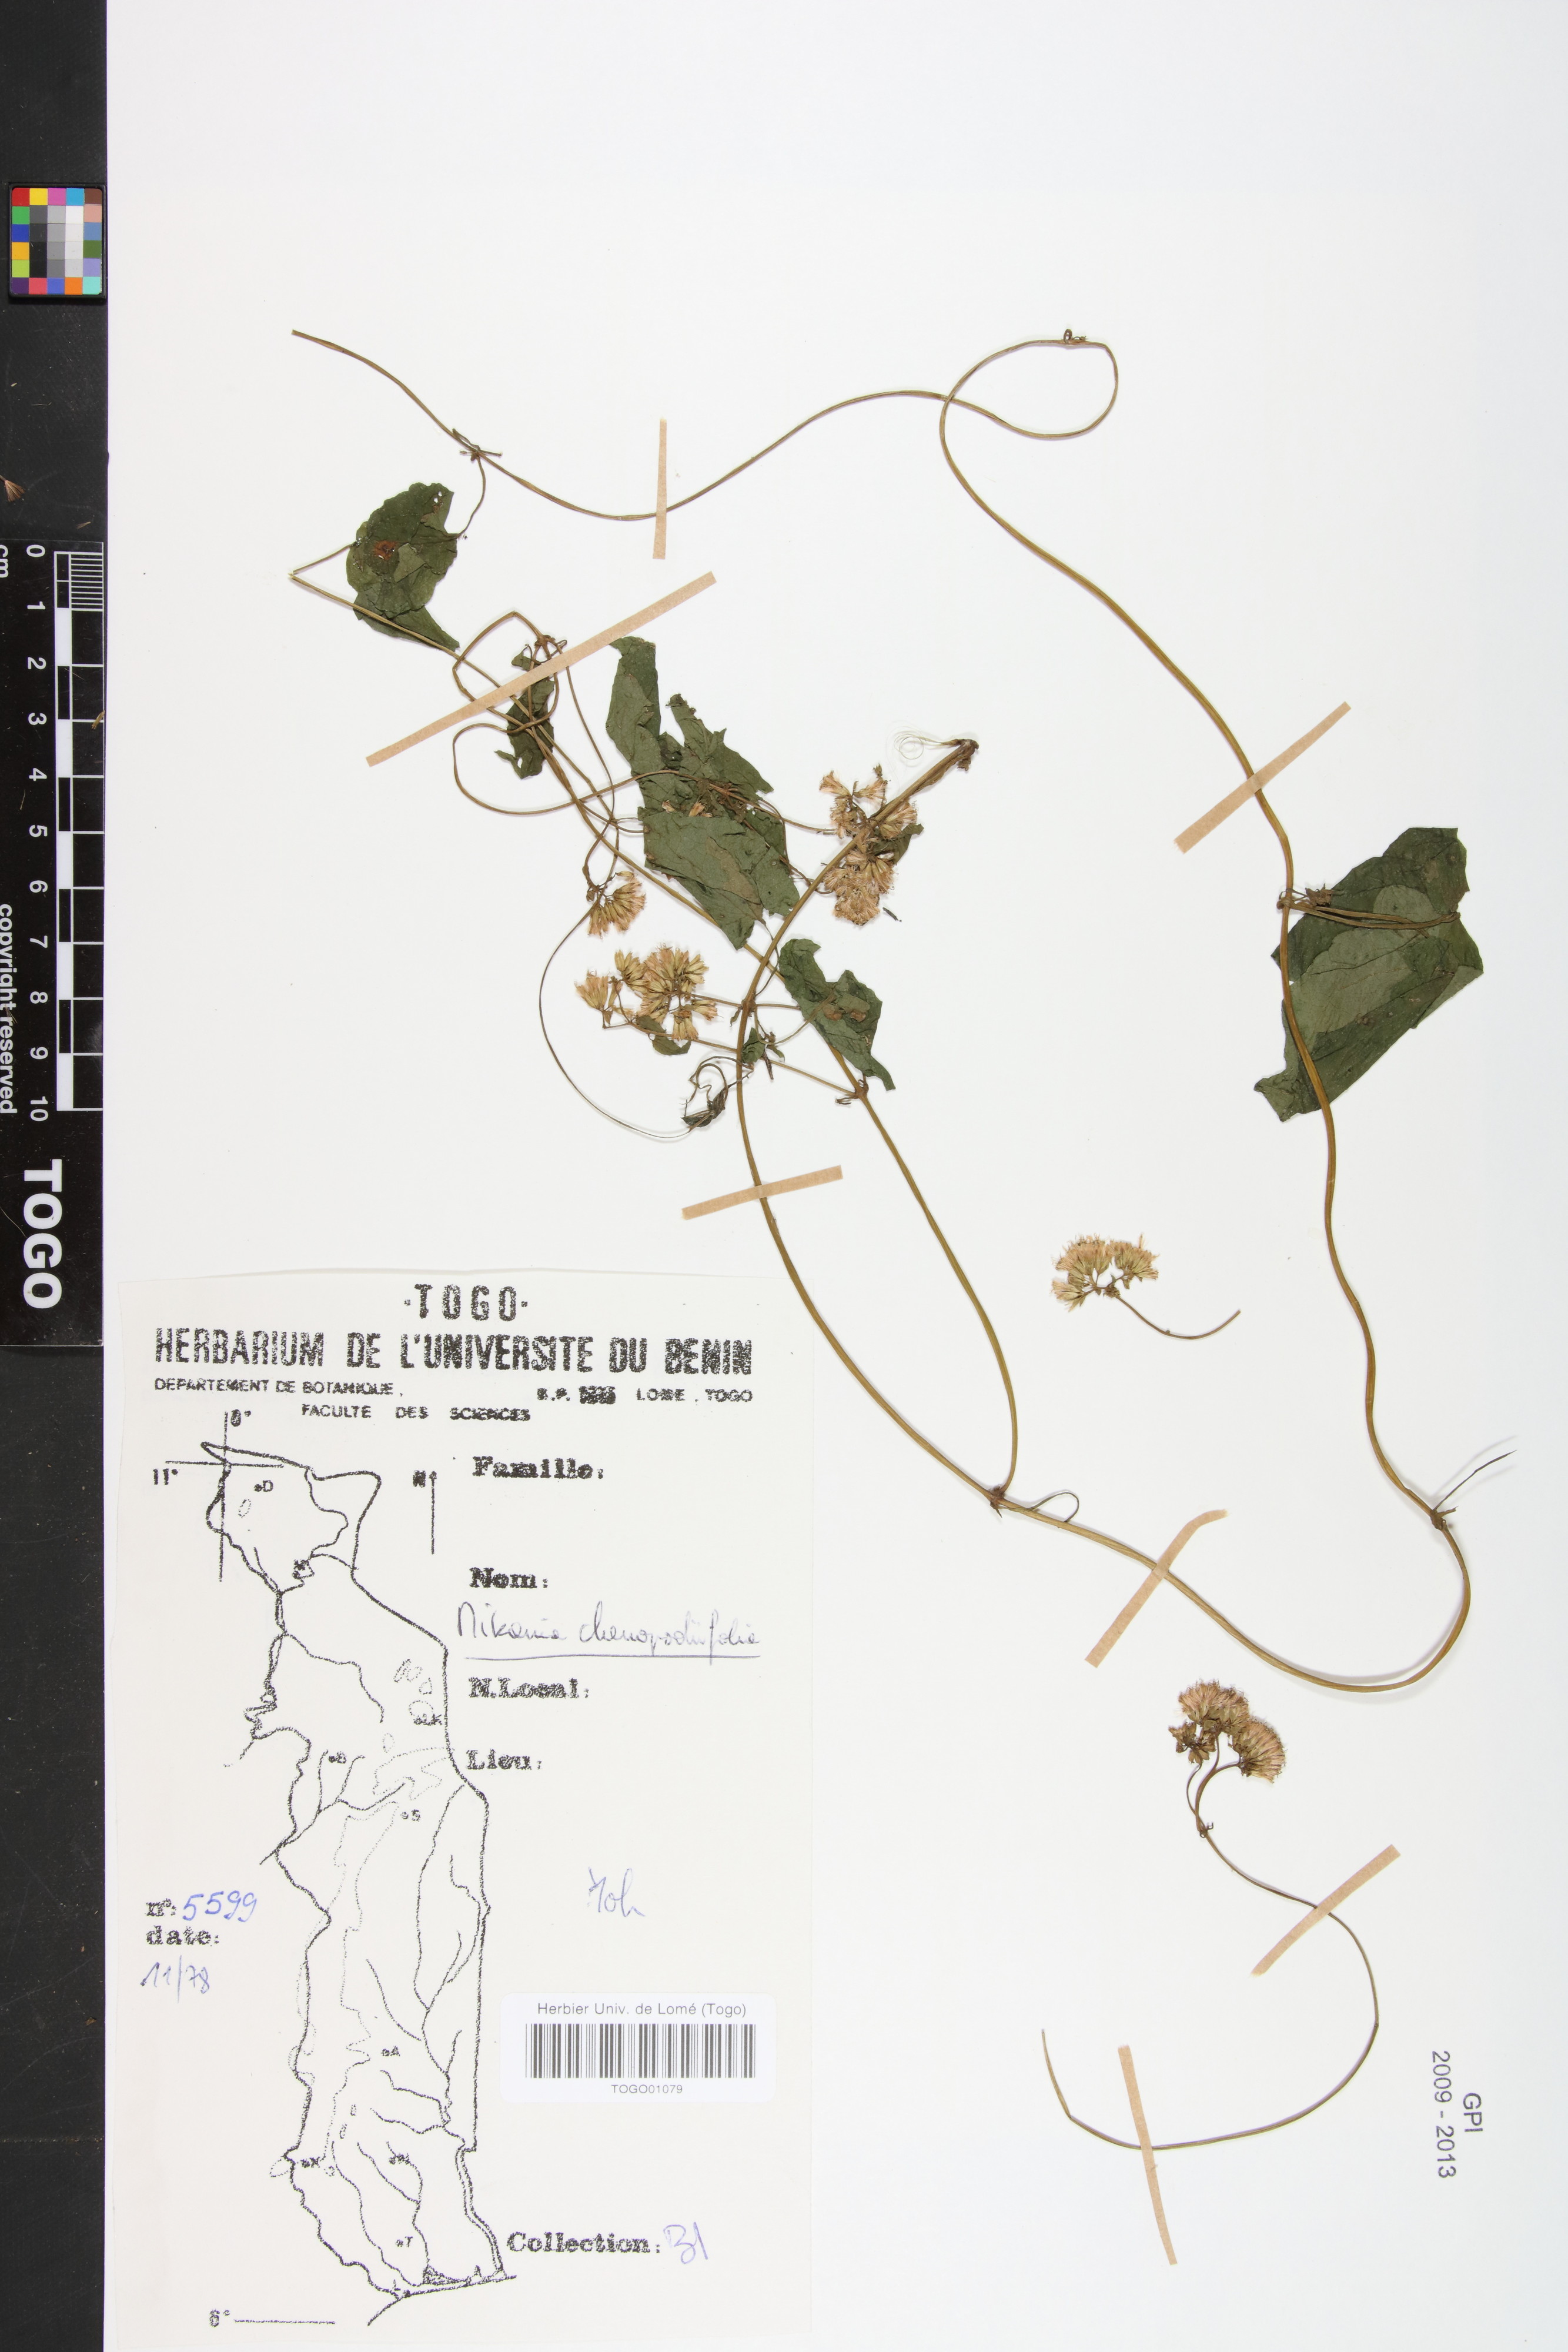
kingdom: Plantae
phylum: Tracheophyta
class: Magnoliopsida
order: Asterales
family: Asteraceae
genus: Mikania
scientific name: Mikania chenopodifolia
